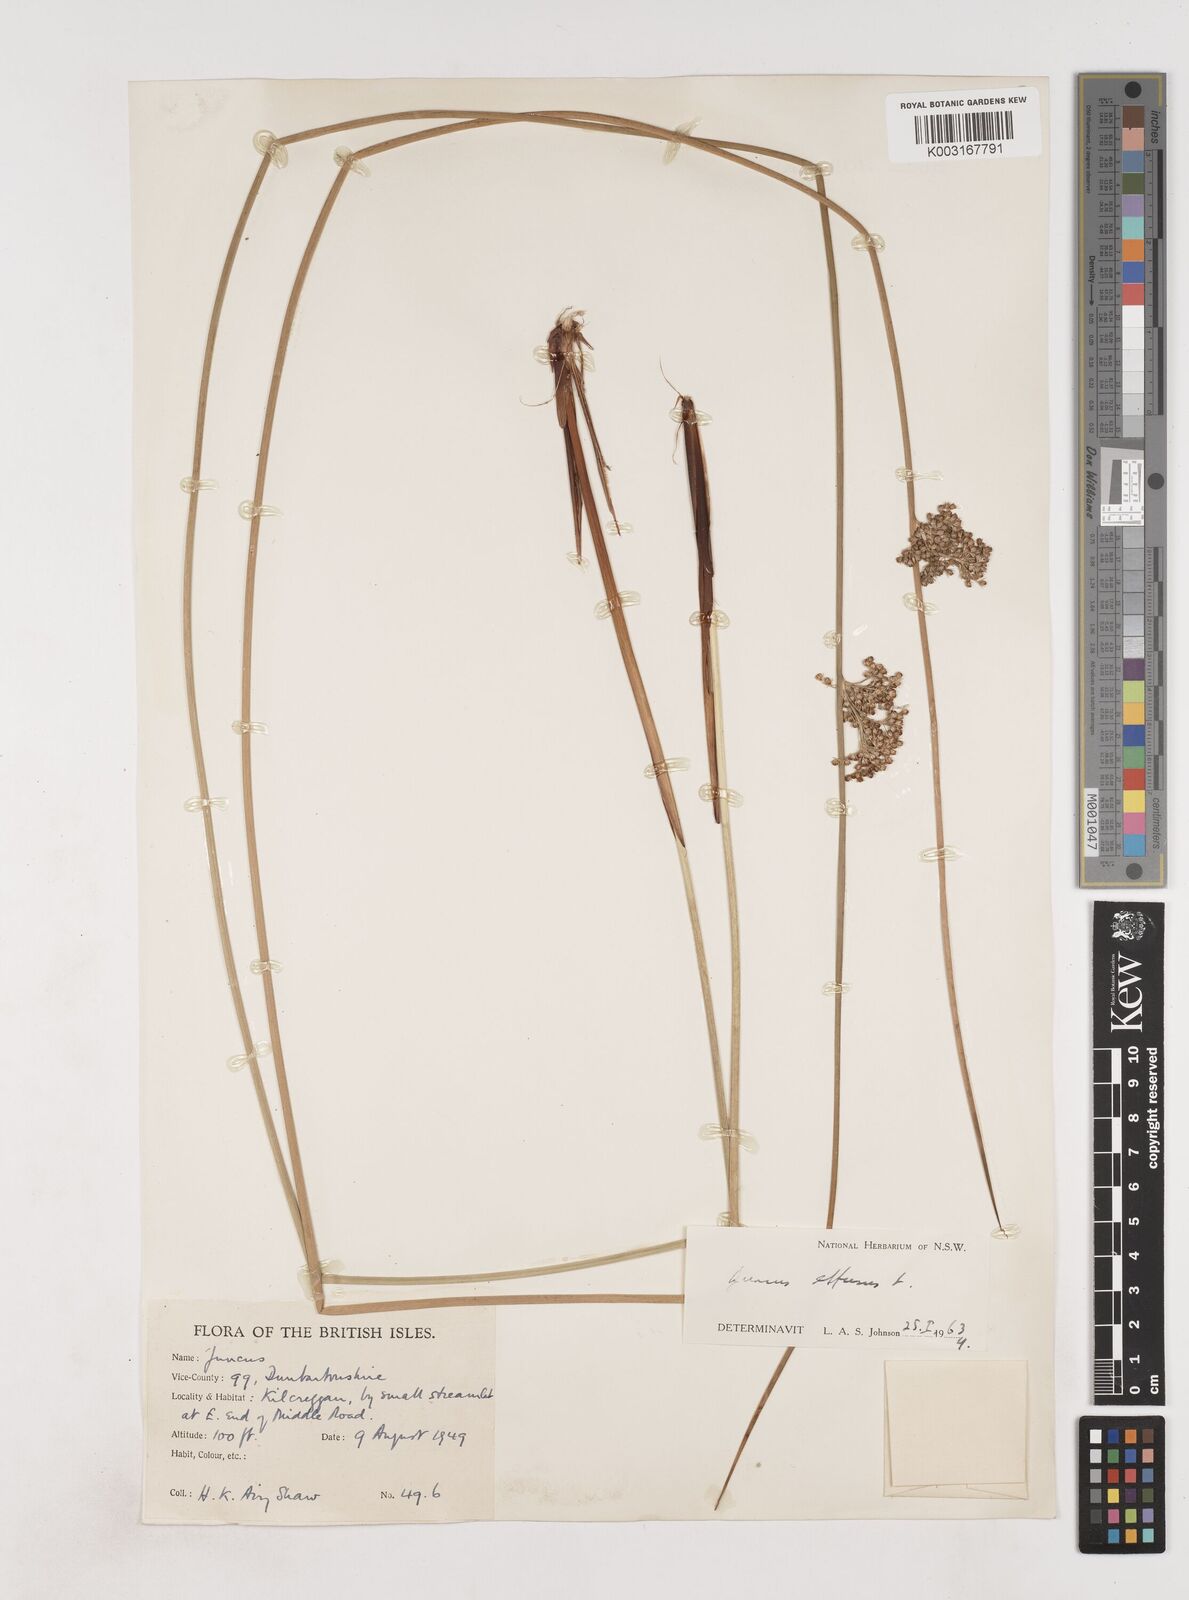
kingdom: Plantae
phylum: Tracheophyta
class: Liliopsida
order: Poales
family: Juncaceae
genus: Juncus
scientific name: Juncus effusus
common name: Soft rush
